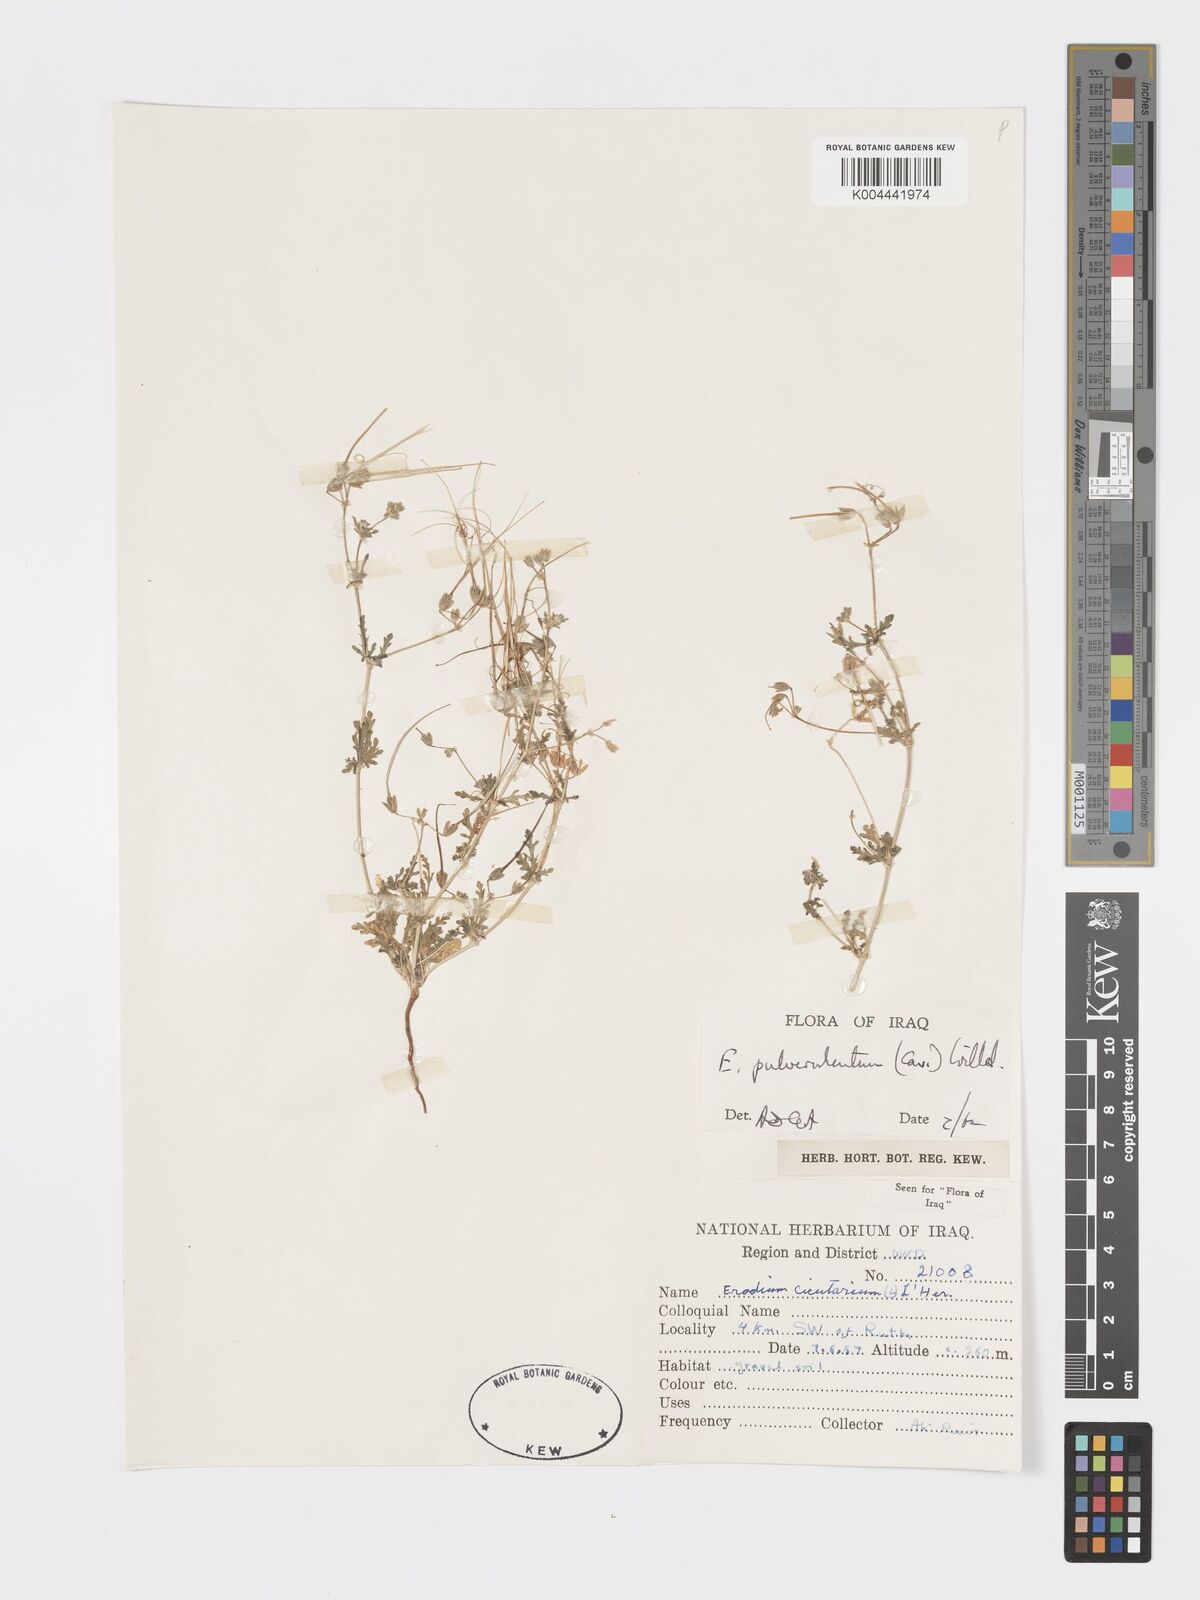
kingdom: Plantae
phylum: Tracheophyta
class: Magnoliopsida
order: Geraniales
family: Geraniaceae
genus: Erodium
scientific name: Erodium laciniatum
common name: Cutleaf stork's bill
